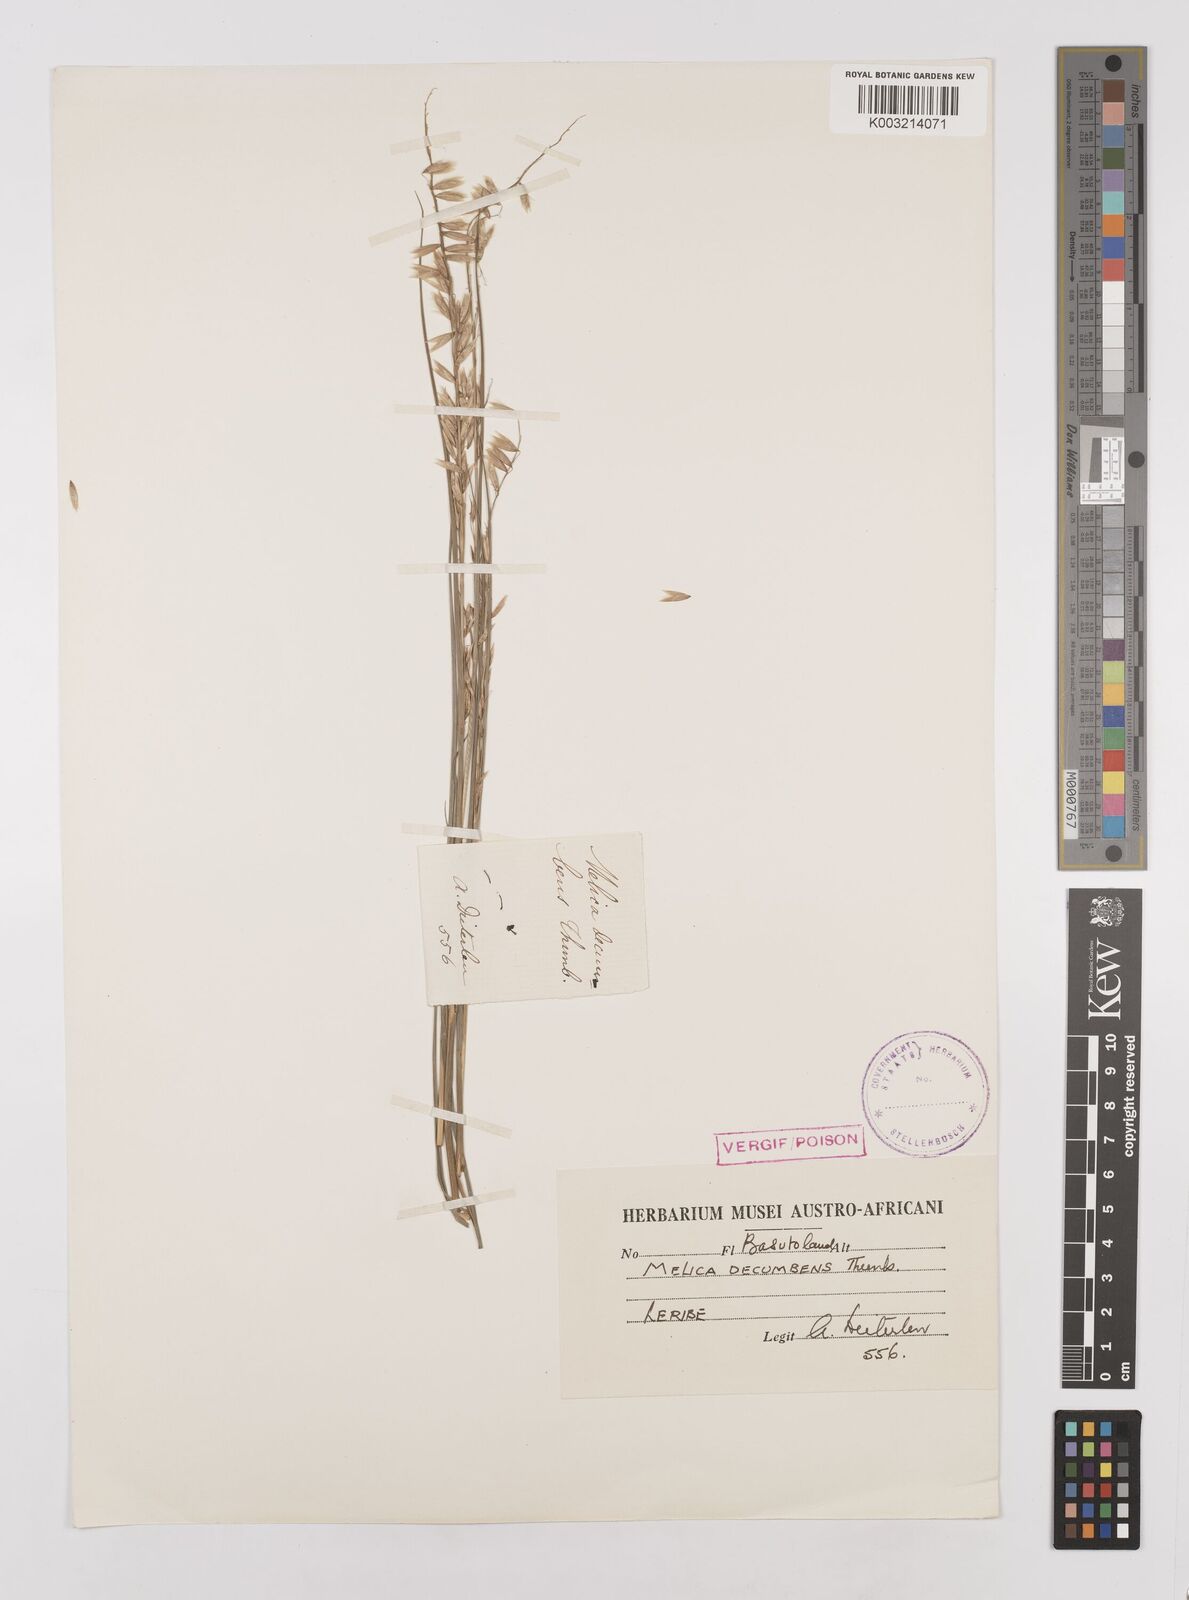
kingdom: Plantae
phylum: Tracheophyta
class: Liliopsida
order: Poales
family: Poaceae
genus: Melica
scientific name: Melica dendroides
